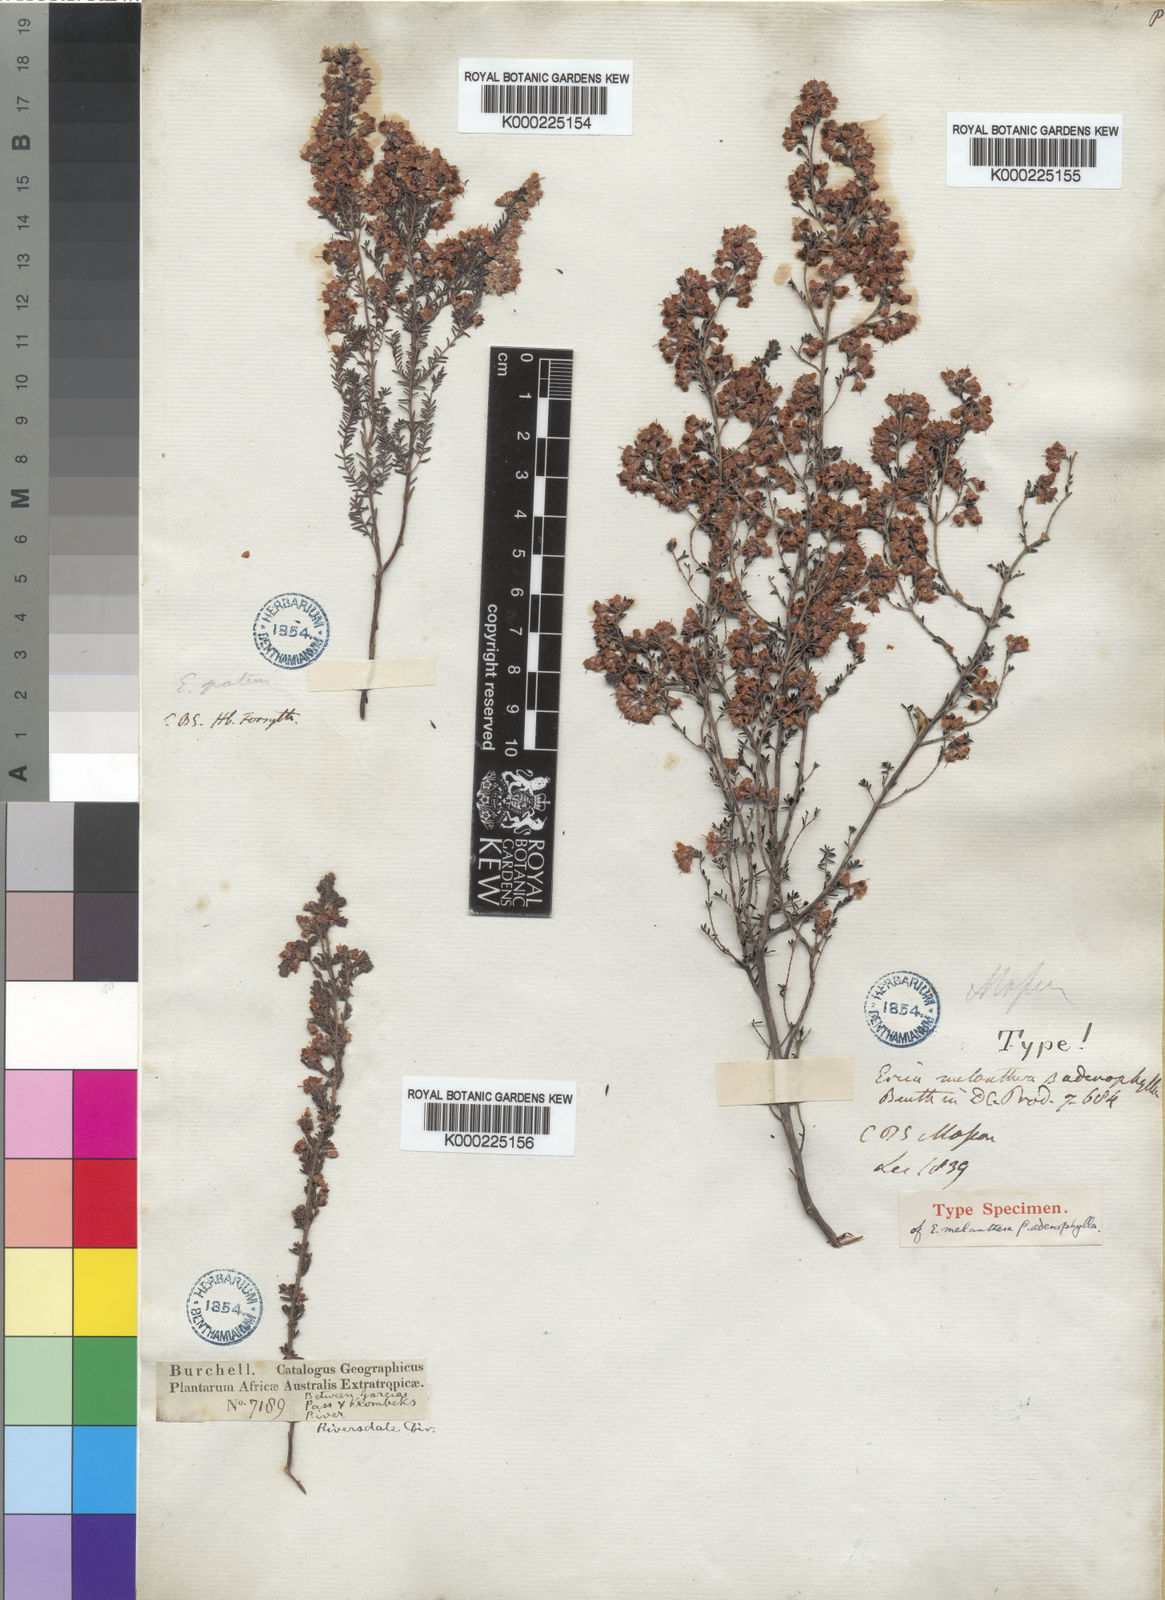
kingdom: Plantae
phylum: Tracheophyta
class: Magnoliopsida
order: Ericales
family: Ericaceae
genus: Erica
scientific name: Erica melanthera
